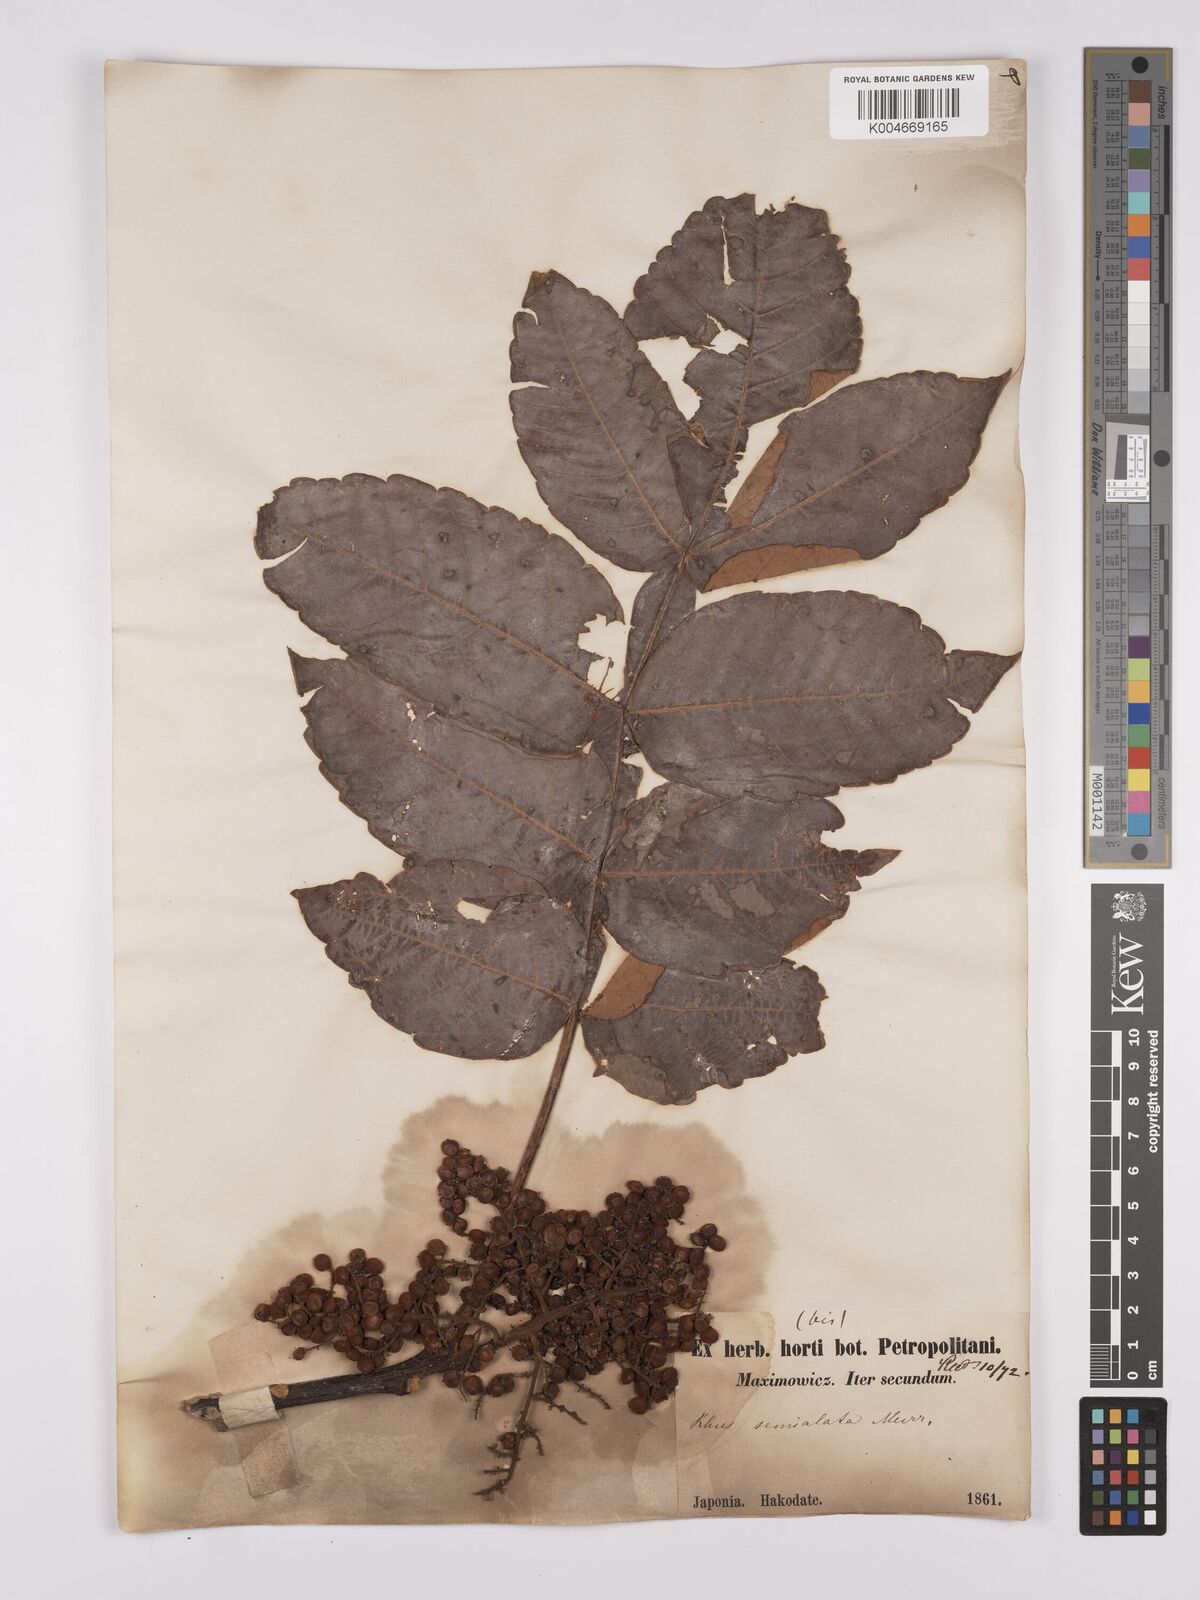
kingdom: Plantae
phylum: Tracheophyta
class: Magnoliopsida
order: Sapindales
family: Anacardiaceae
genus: Rhus
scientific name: Rhus chinensis
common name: Chinese gall
